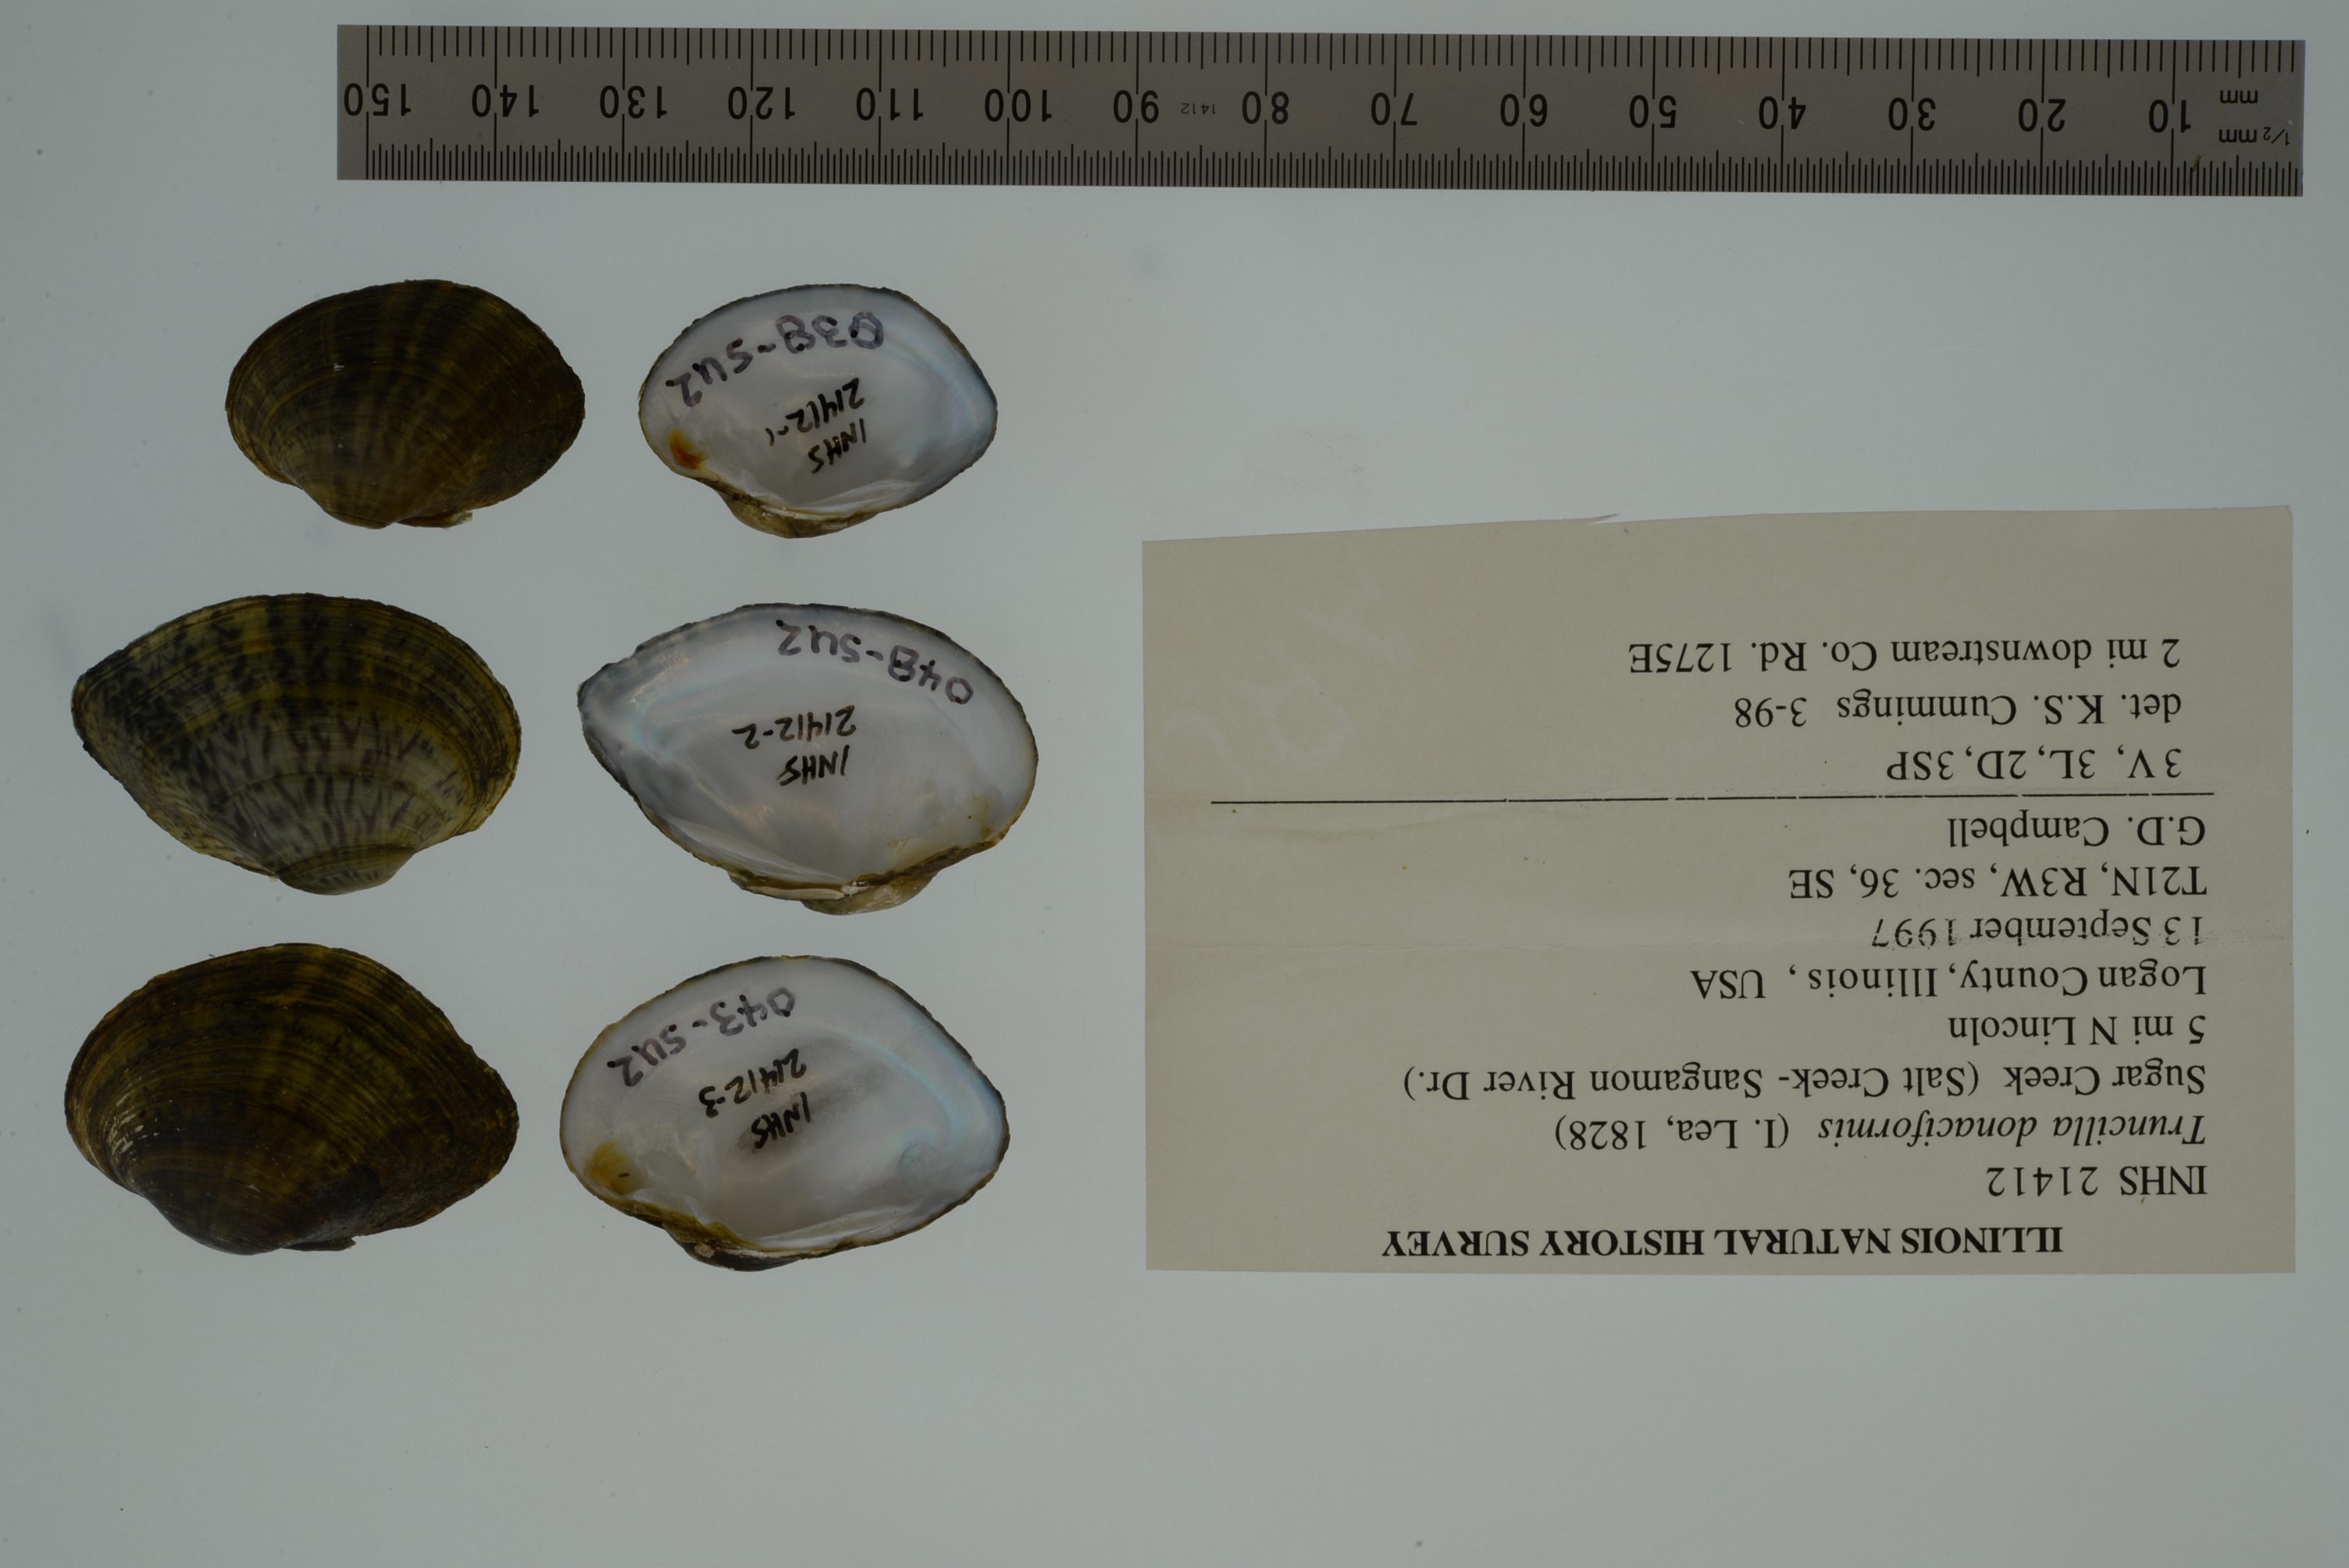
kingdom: Animalia
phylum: Mollusca
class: Bivalvia
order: Unionida
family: Unionidae
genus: Truncilla
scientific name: Truncilla donaciformis
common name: Fawnsfoot
